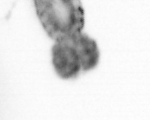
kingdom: Animalia
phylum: Arthropoda
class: Copepoda
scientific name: Copepoda
